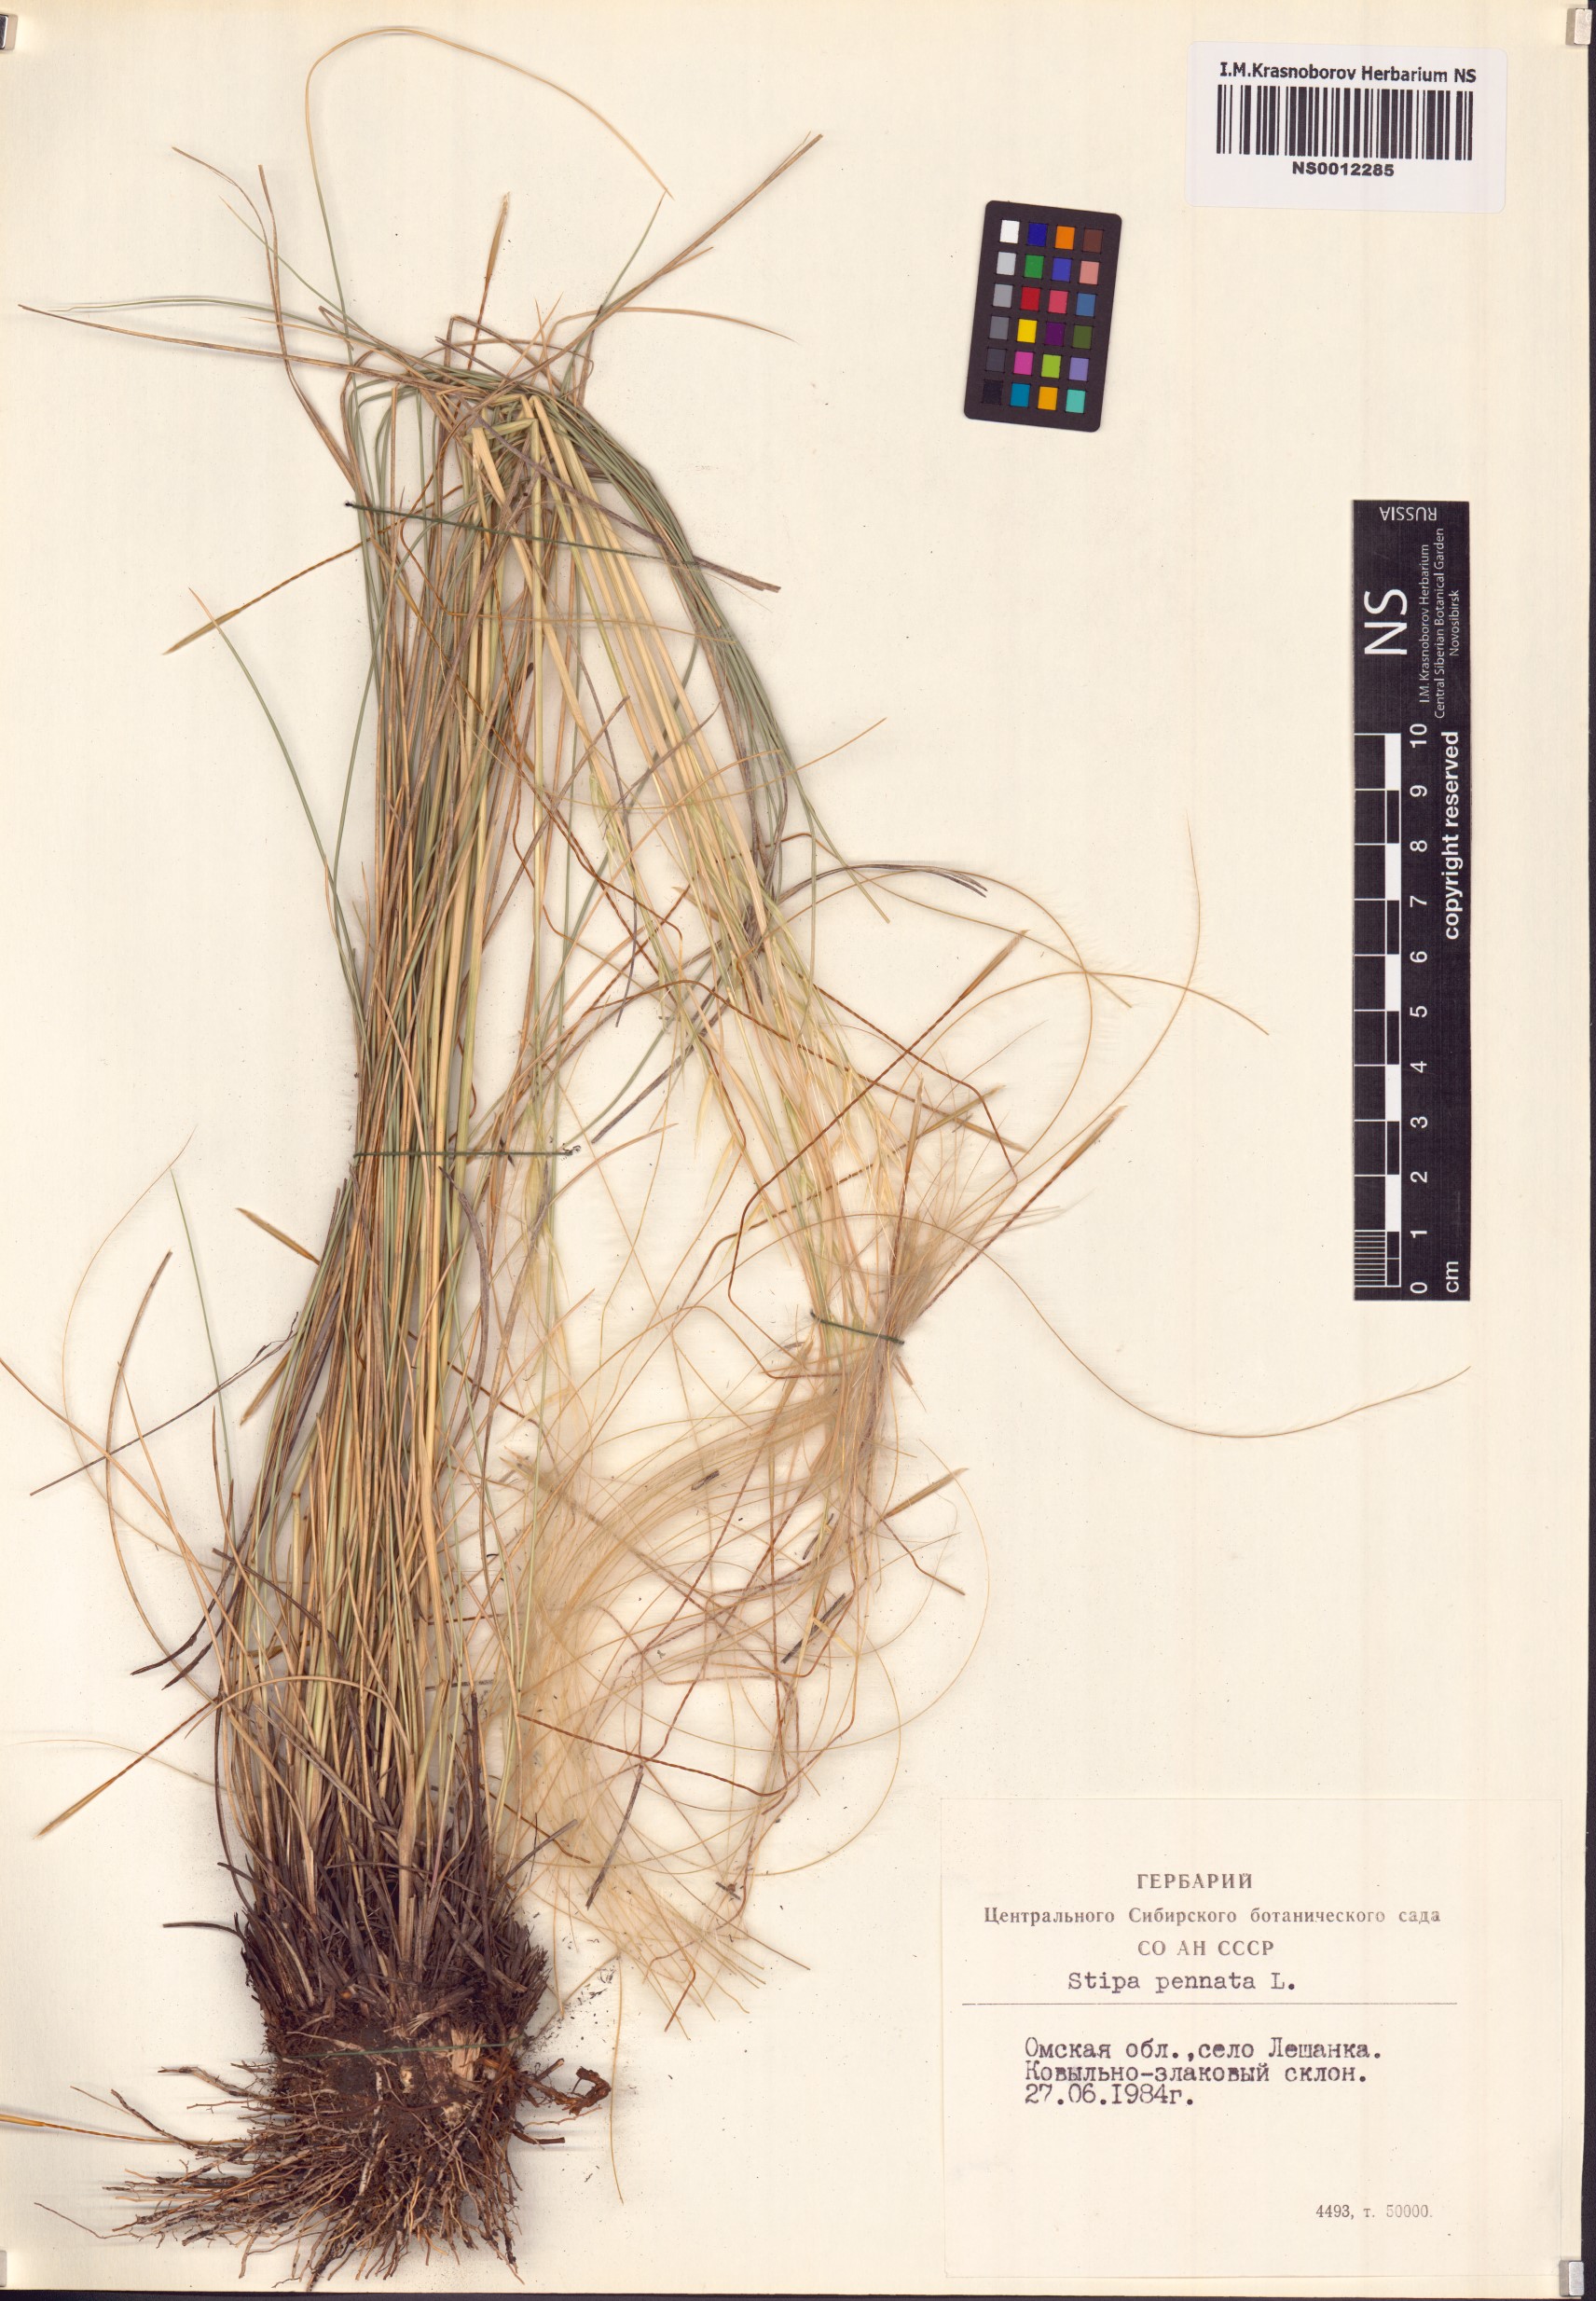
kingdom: Plantae
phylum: Tracheophyta
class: Liliopsida
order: Poales
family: Poaceae
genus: Stipa
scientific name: Stipa pennata
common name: European feather grass
